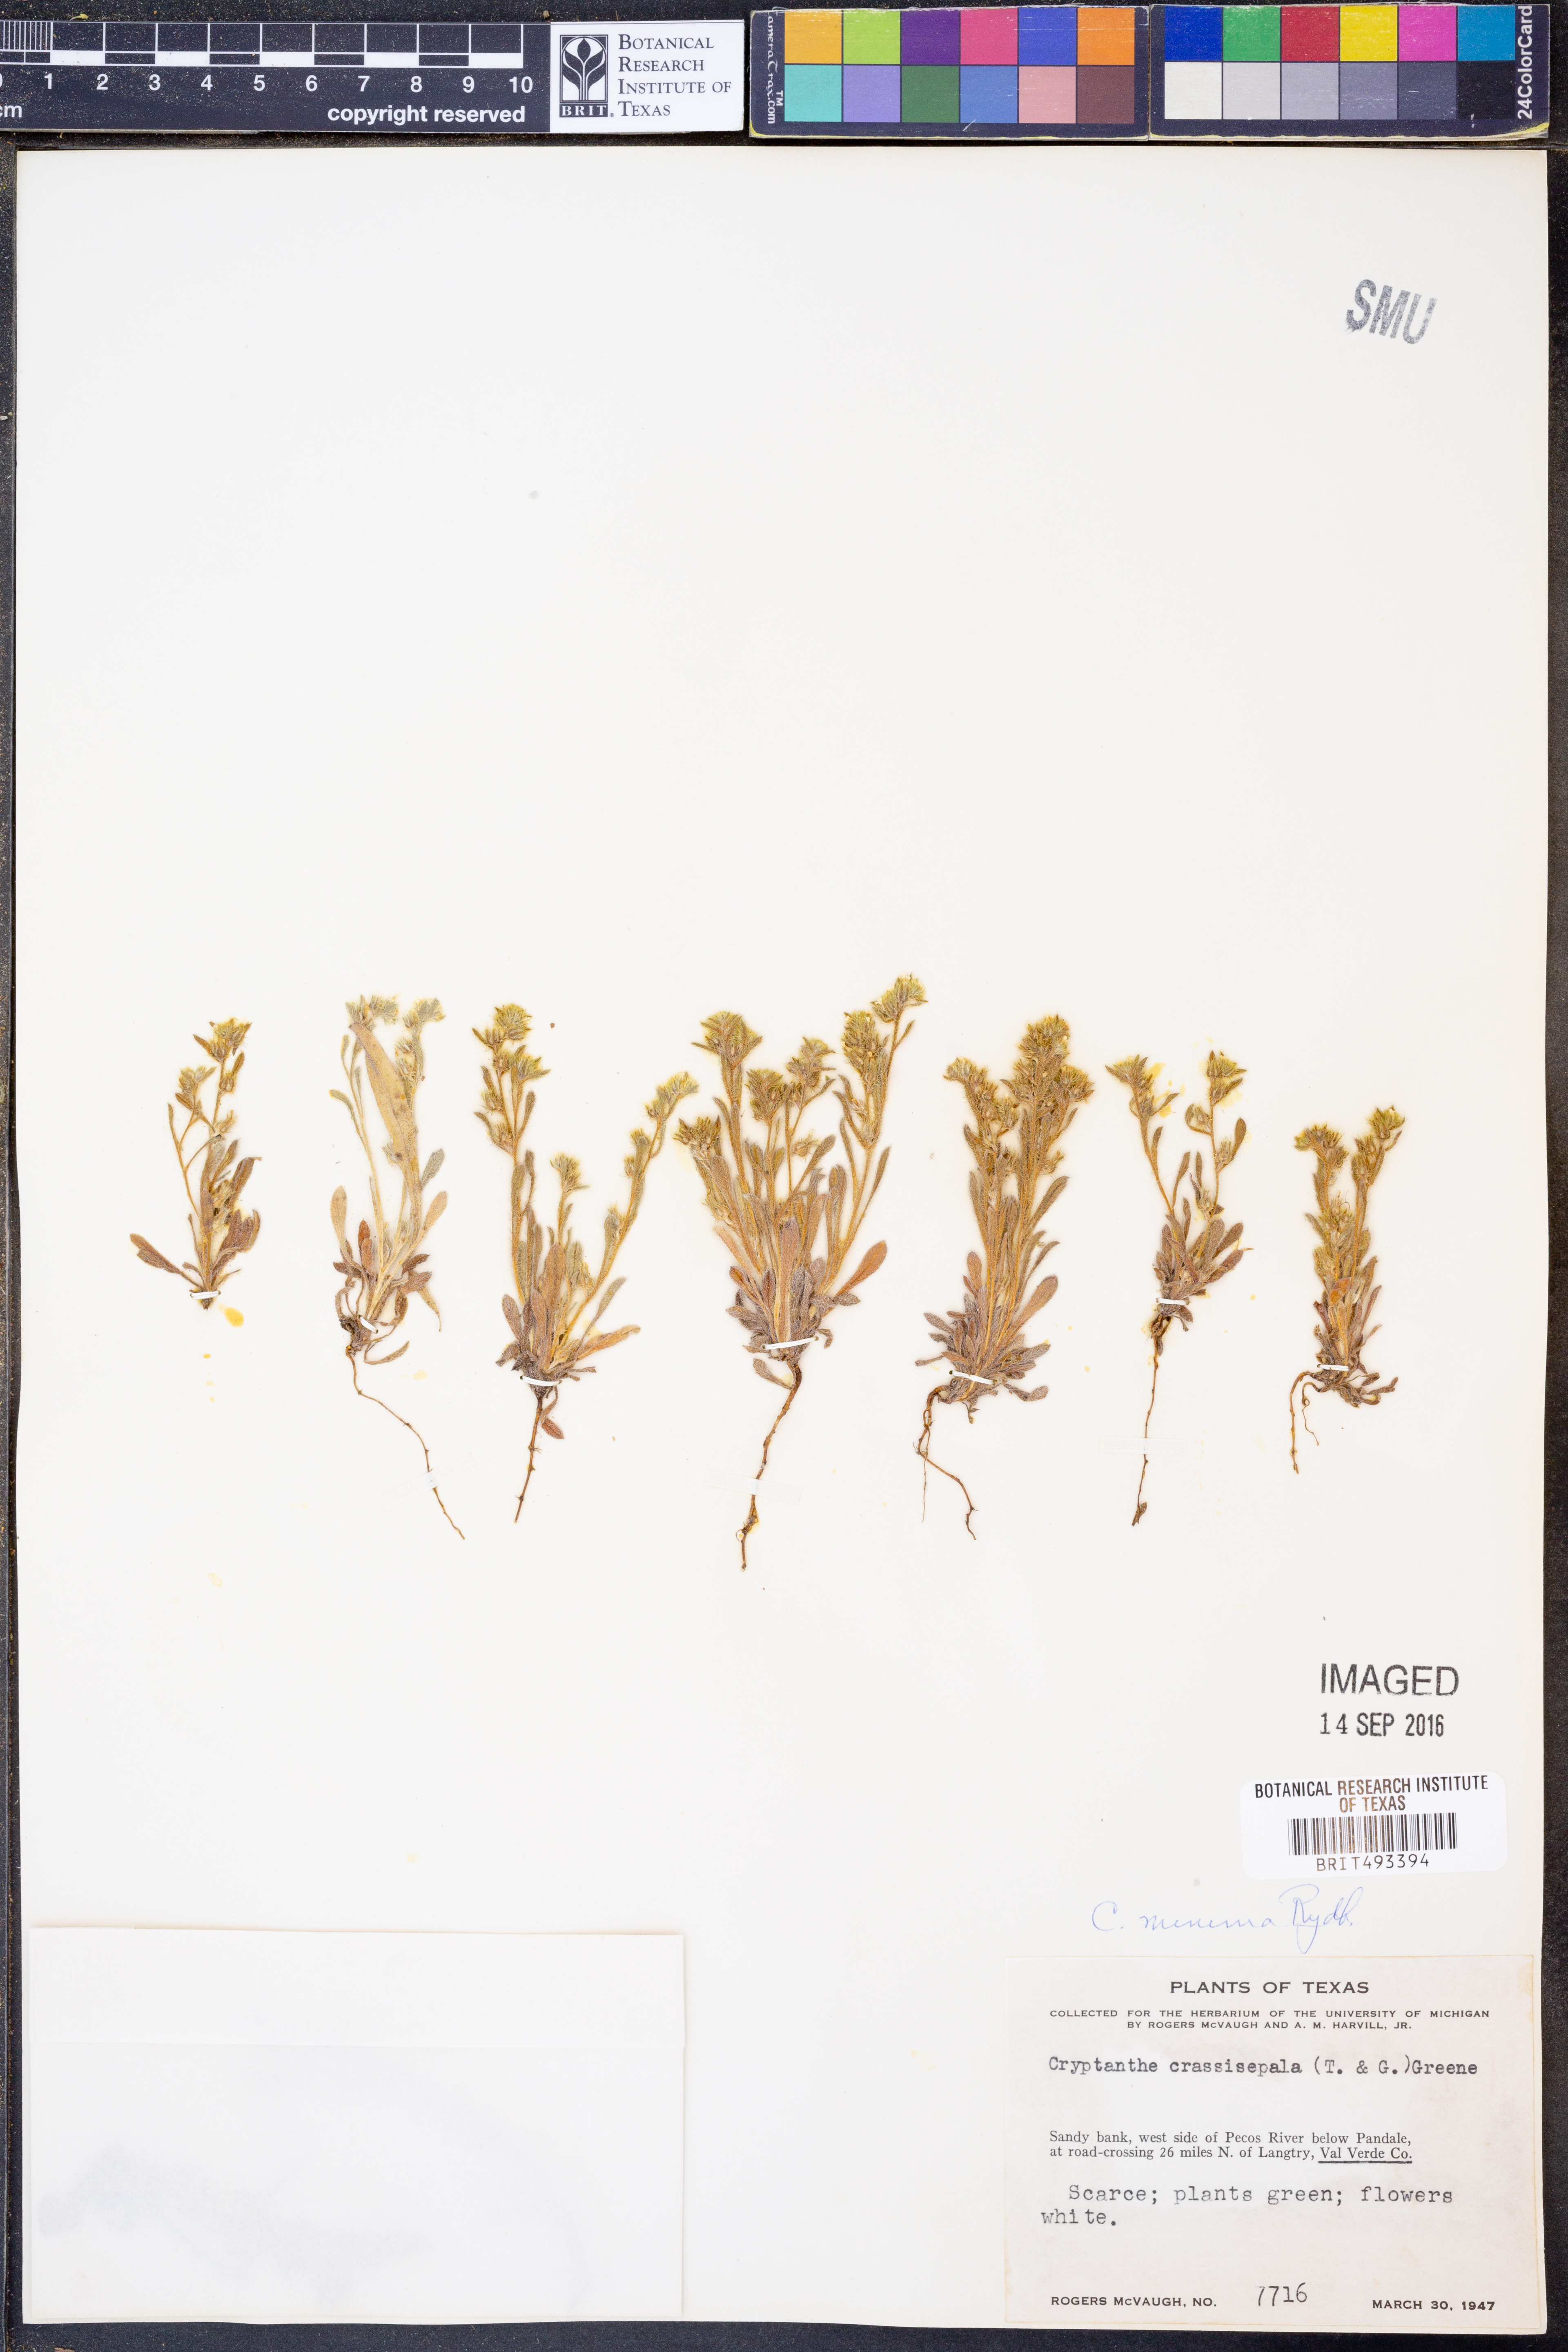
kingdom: Plantae
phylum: Tracheophyta
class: Magnoliopsida
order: Boraginales
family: Boraginaceae
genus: Cryptantha
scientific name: Cryptantha minima
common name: Little cat's-eye
